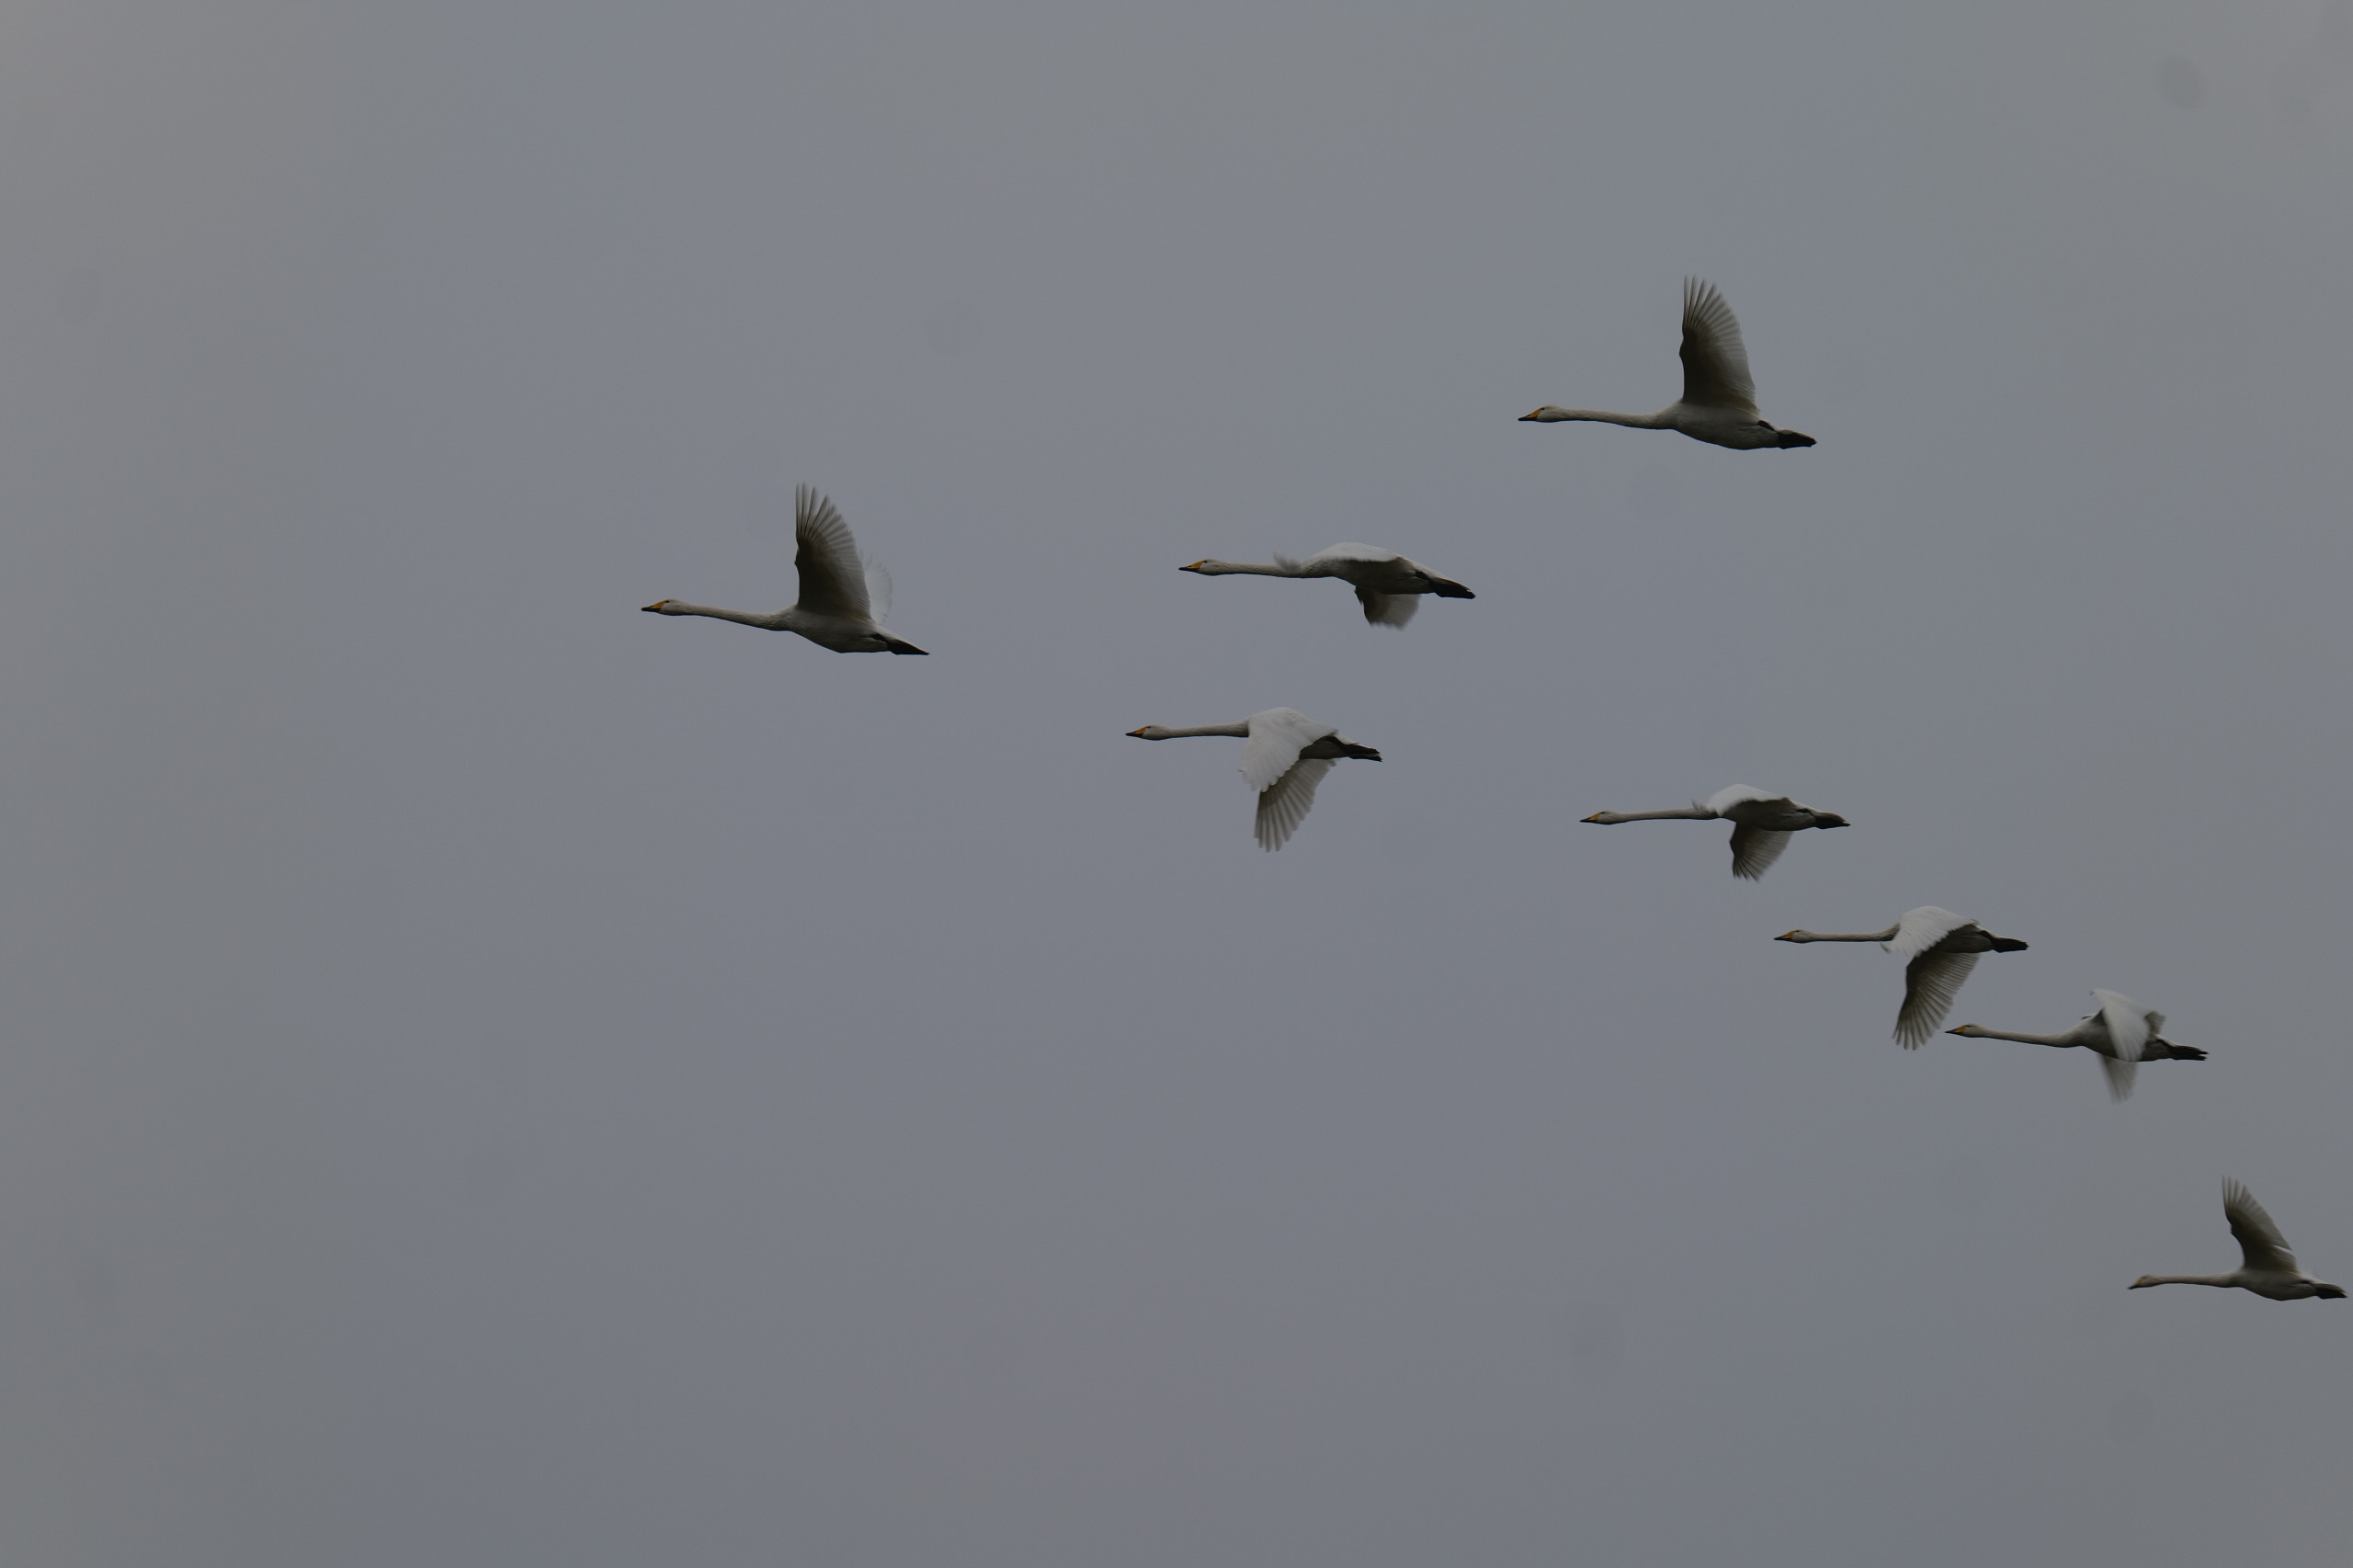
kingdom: Animalia
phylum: Chordata
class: Aves
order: Anseriformes
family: Anatidae
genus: Cygnus
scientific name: Cygnus cygnus
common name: Sangsvane
